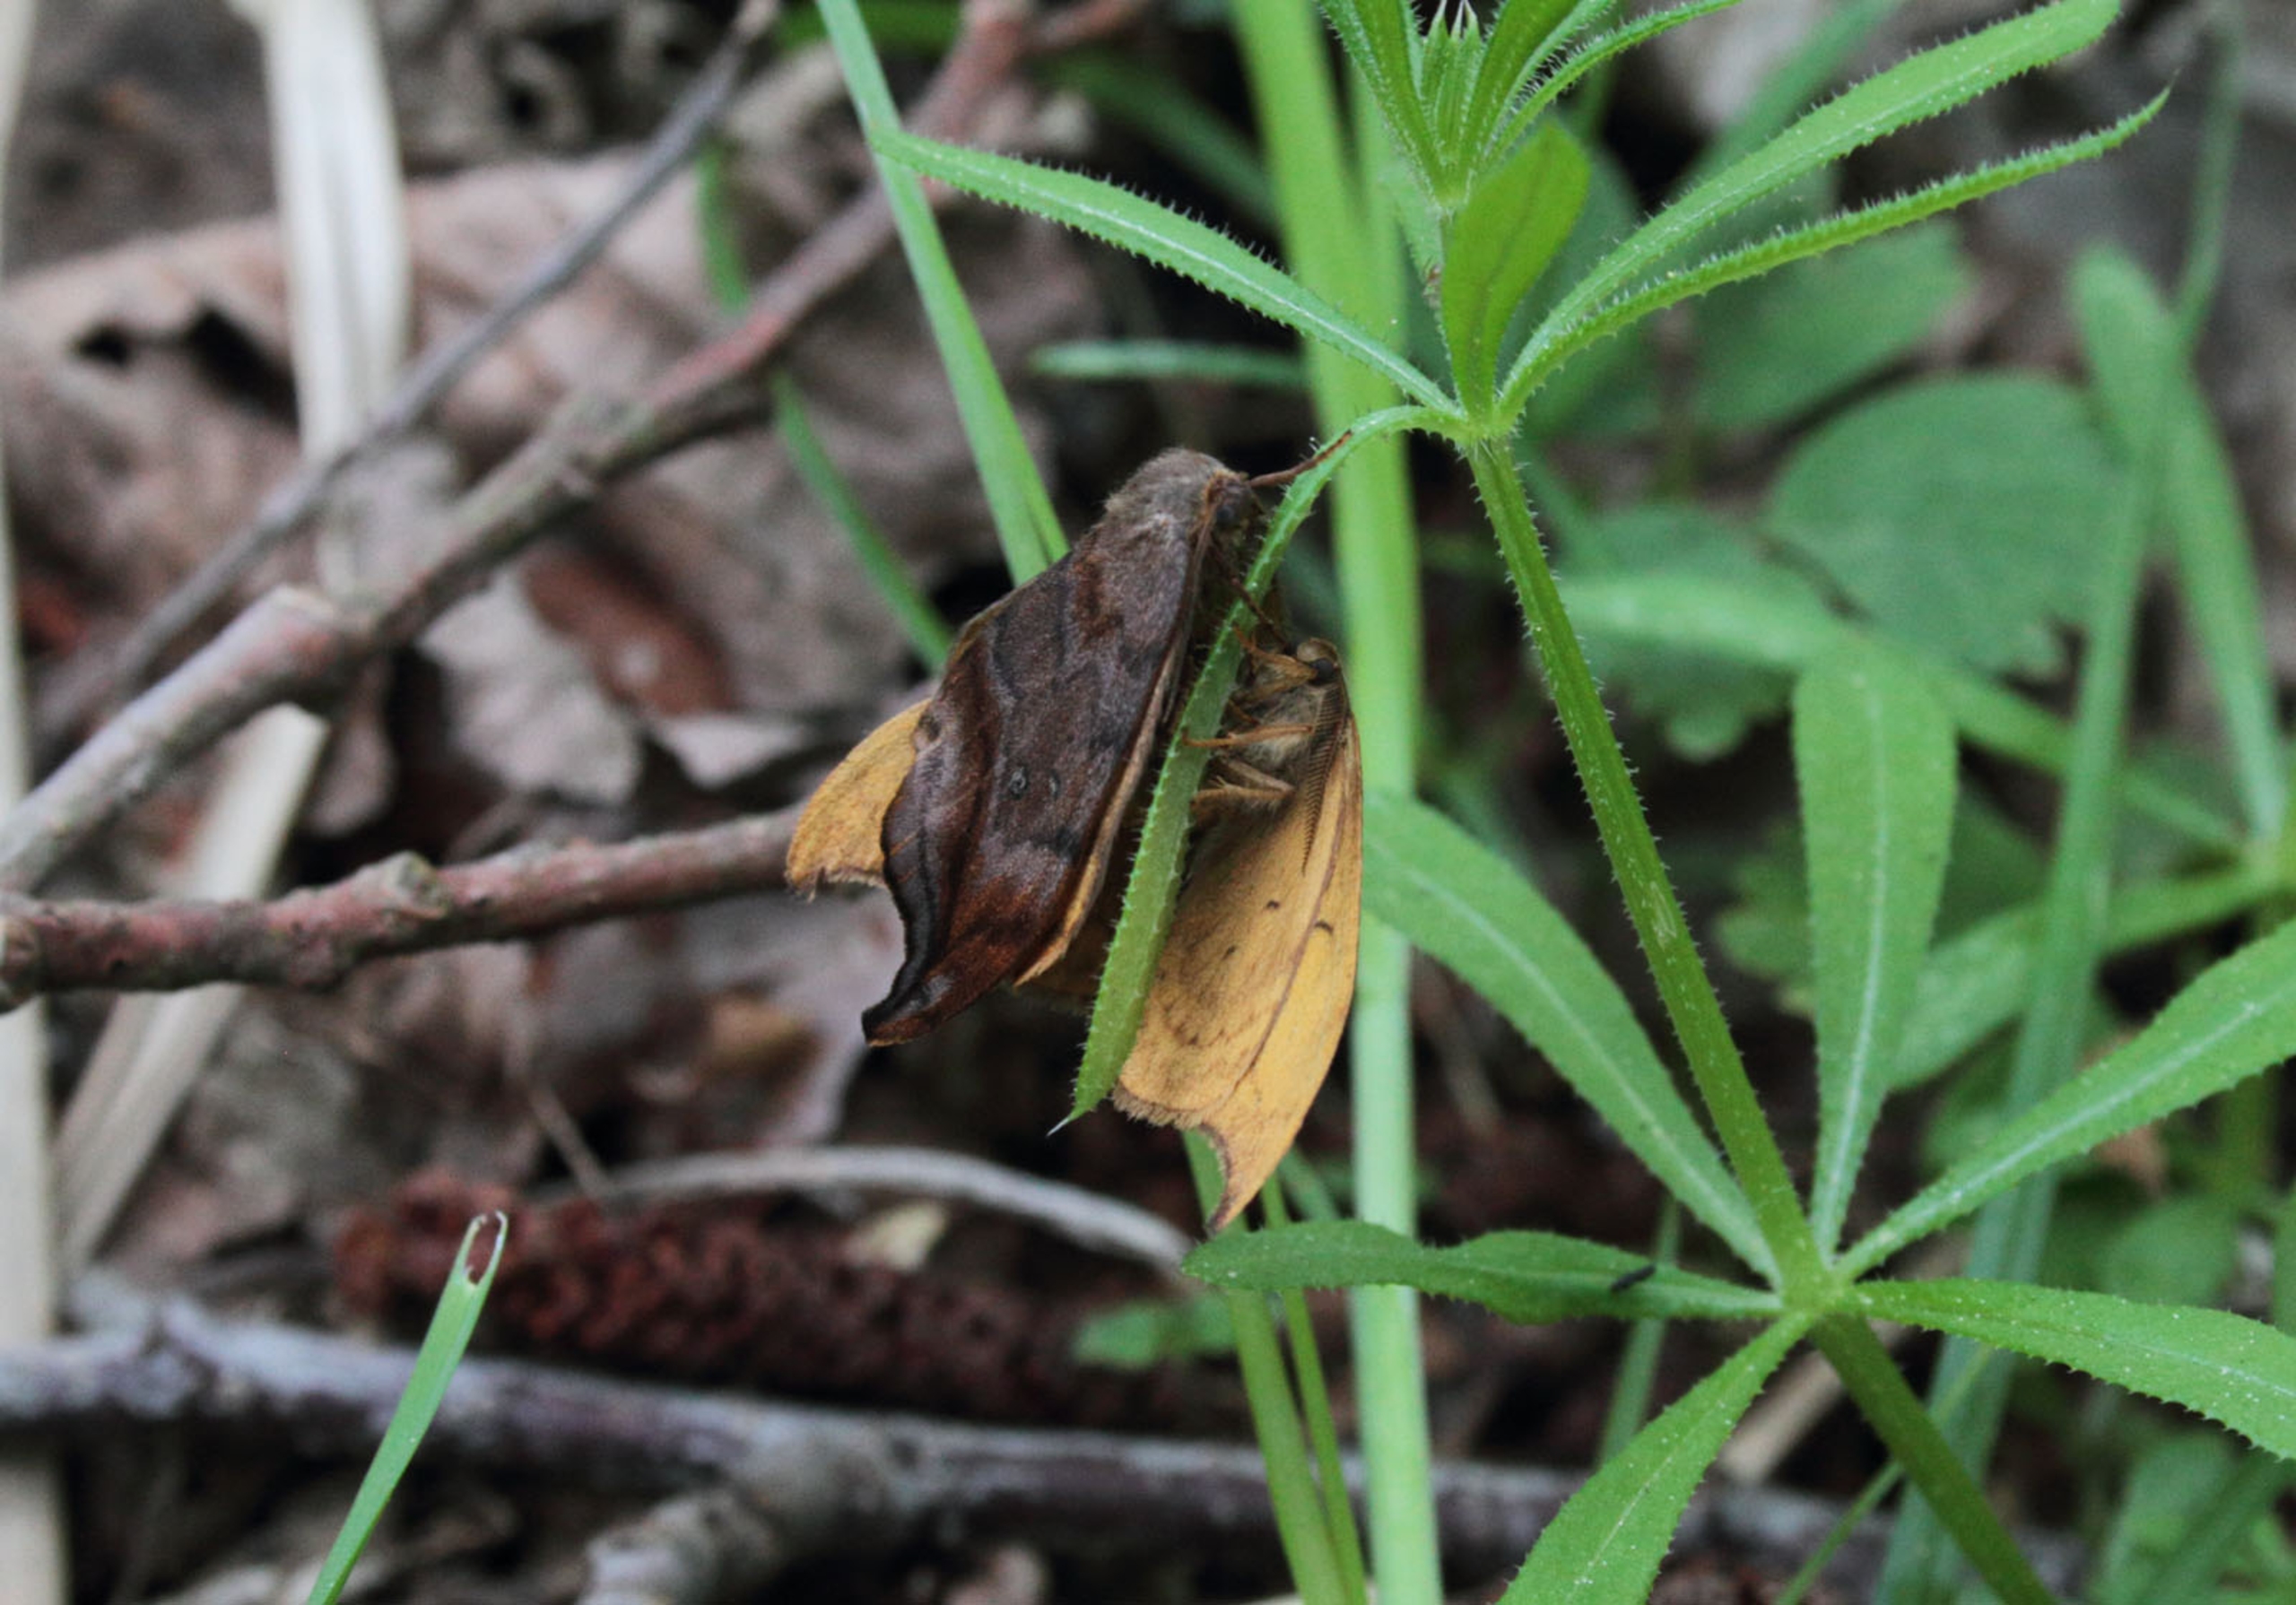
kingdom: Animalia
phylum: Arthropoda
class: Insecta
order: Lepidoptera
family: Drepanidae
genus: Drepana
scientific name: Drepana curvatula
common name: Brun seglvinge
